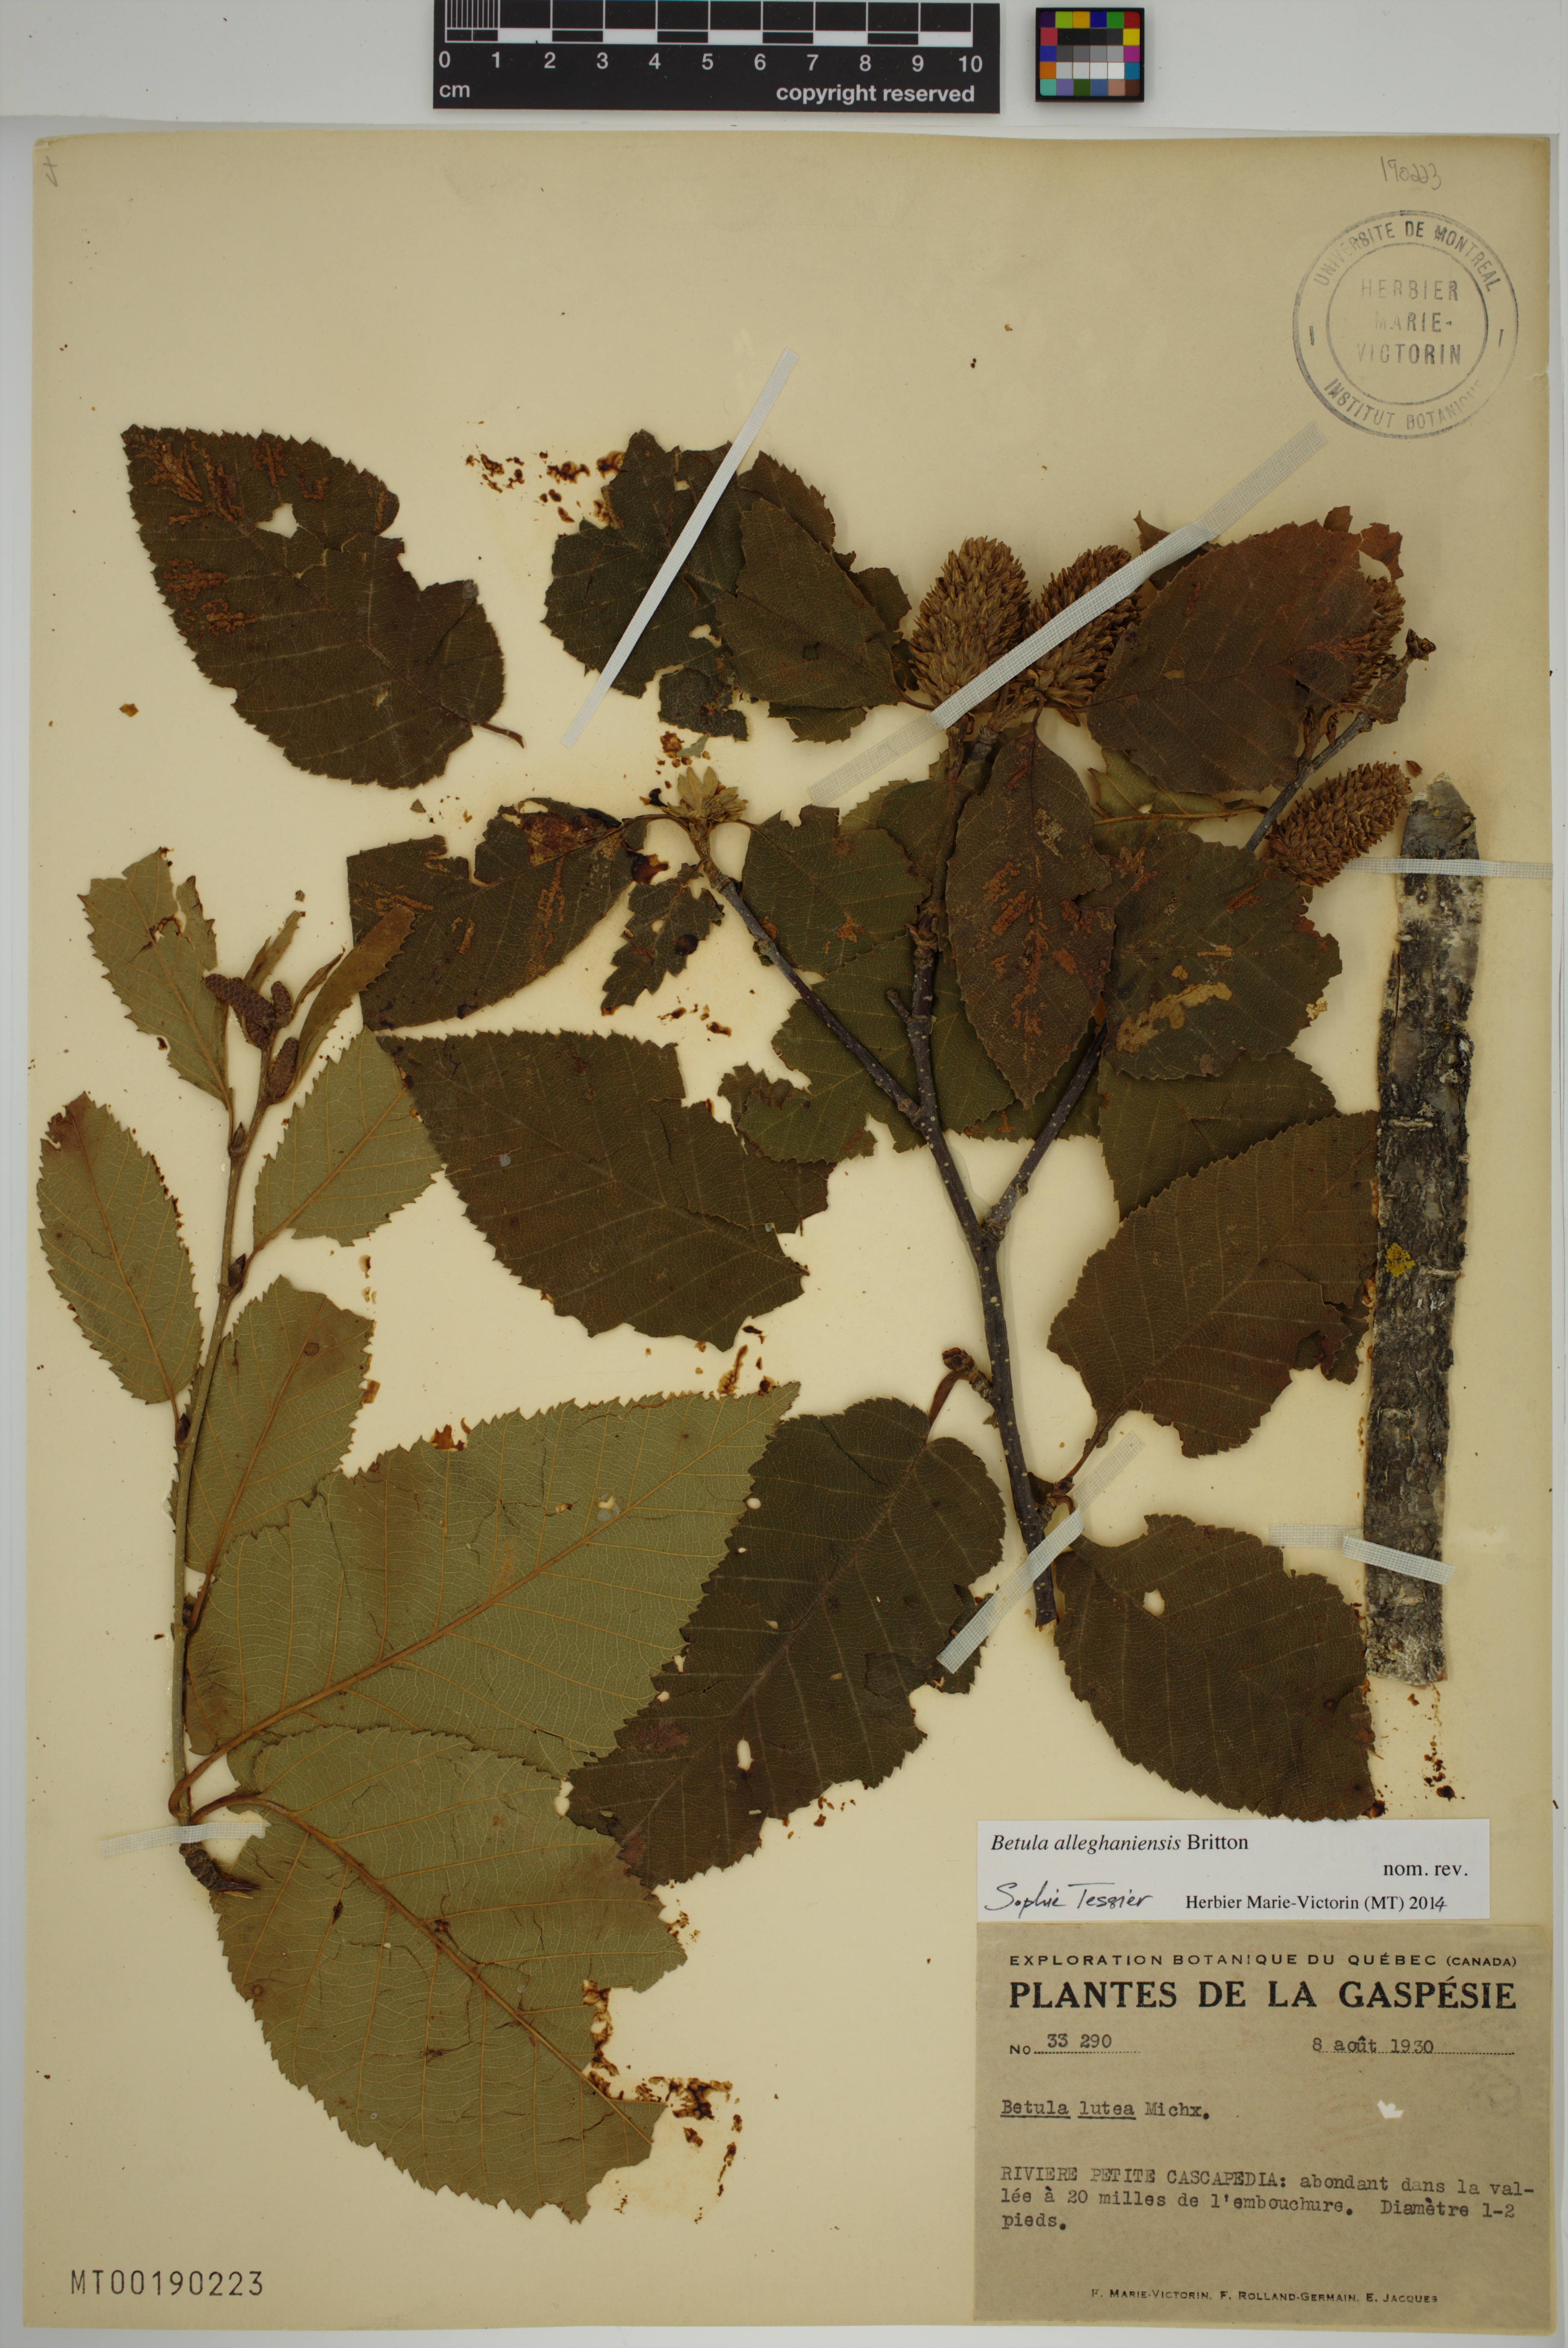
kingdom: Plantae
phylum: Tracheophyta
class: Magnoliopsida
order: Fagales
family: Betulaceae
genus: Betula
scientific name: Betula alleghaniensis
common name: Yellow birch
